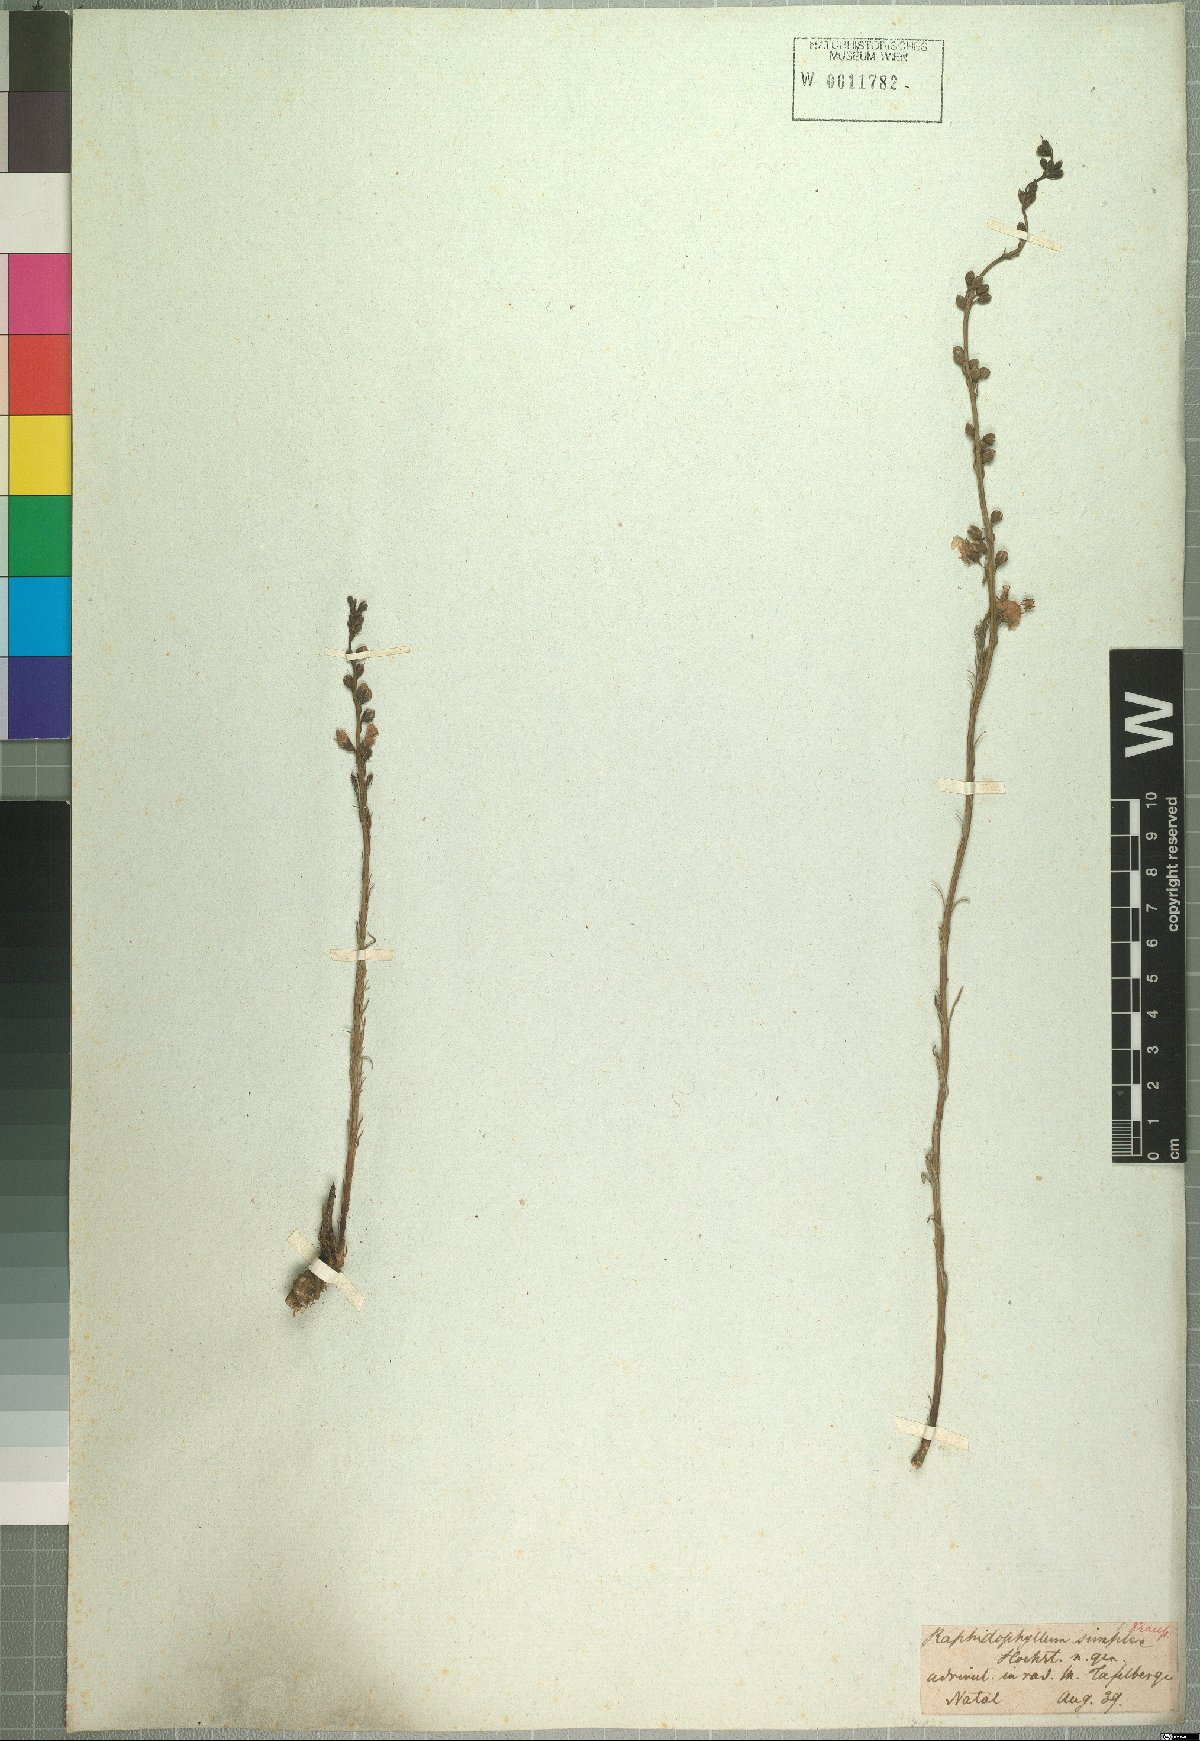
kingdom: Plantae
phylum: Tracheophyta
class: Magnoliopsida
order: Lamiales
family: Orobanchaceae
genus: Sopubia
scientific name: Sopubia simplex
